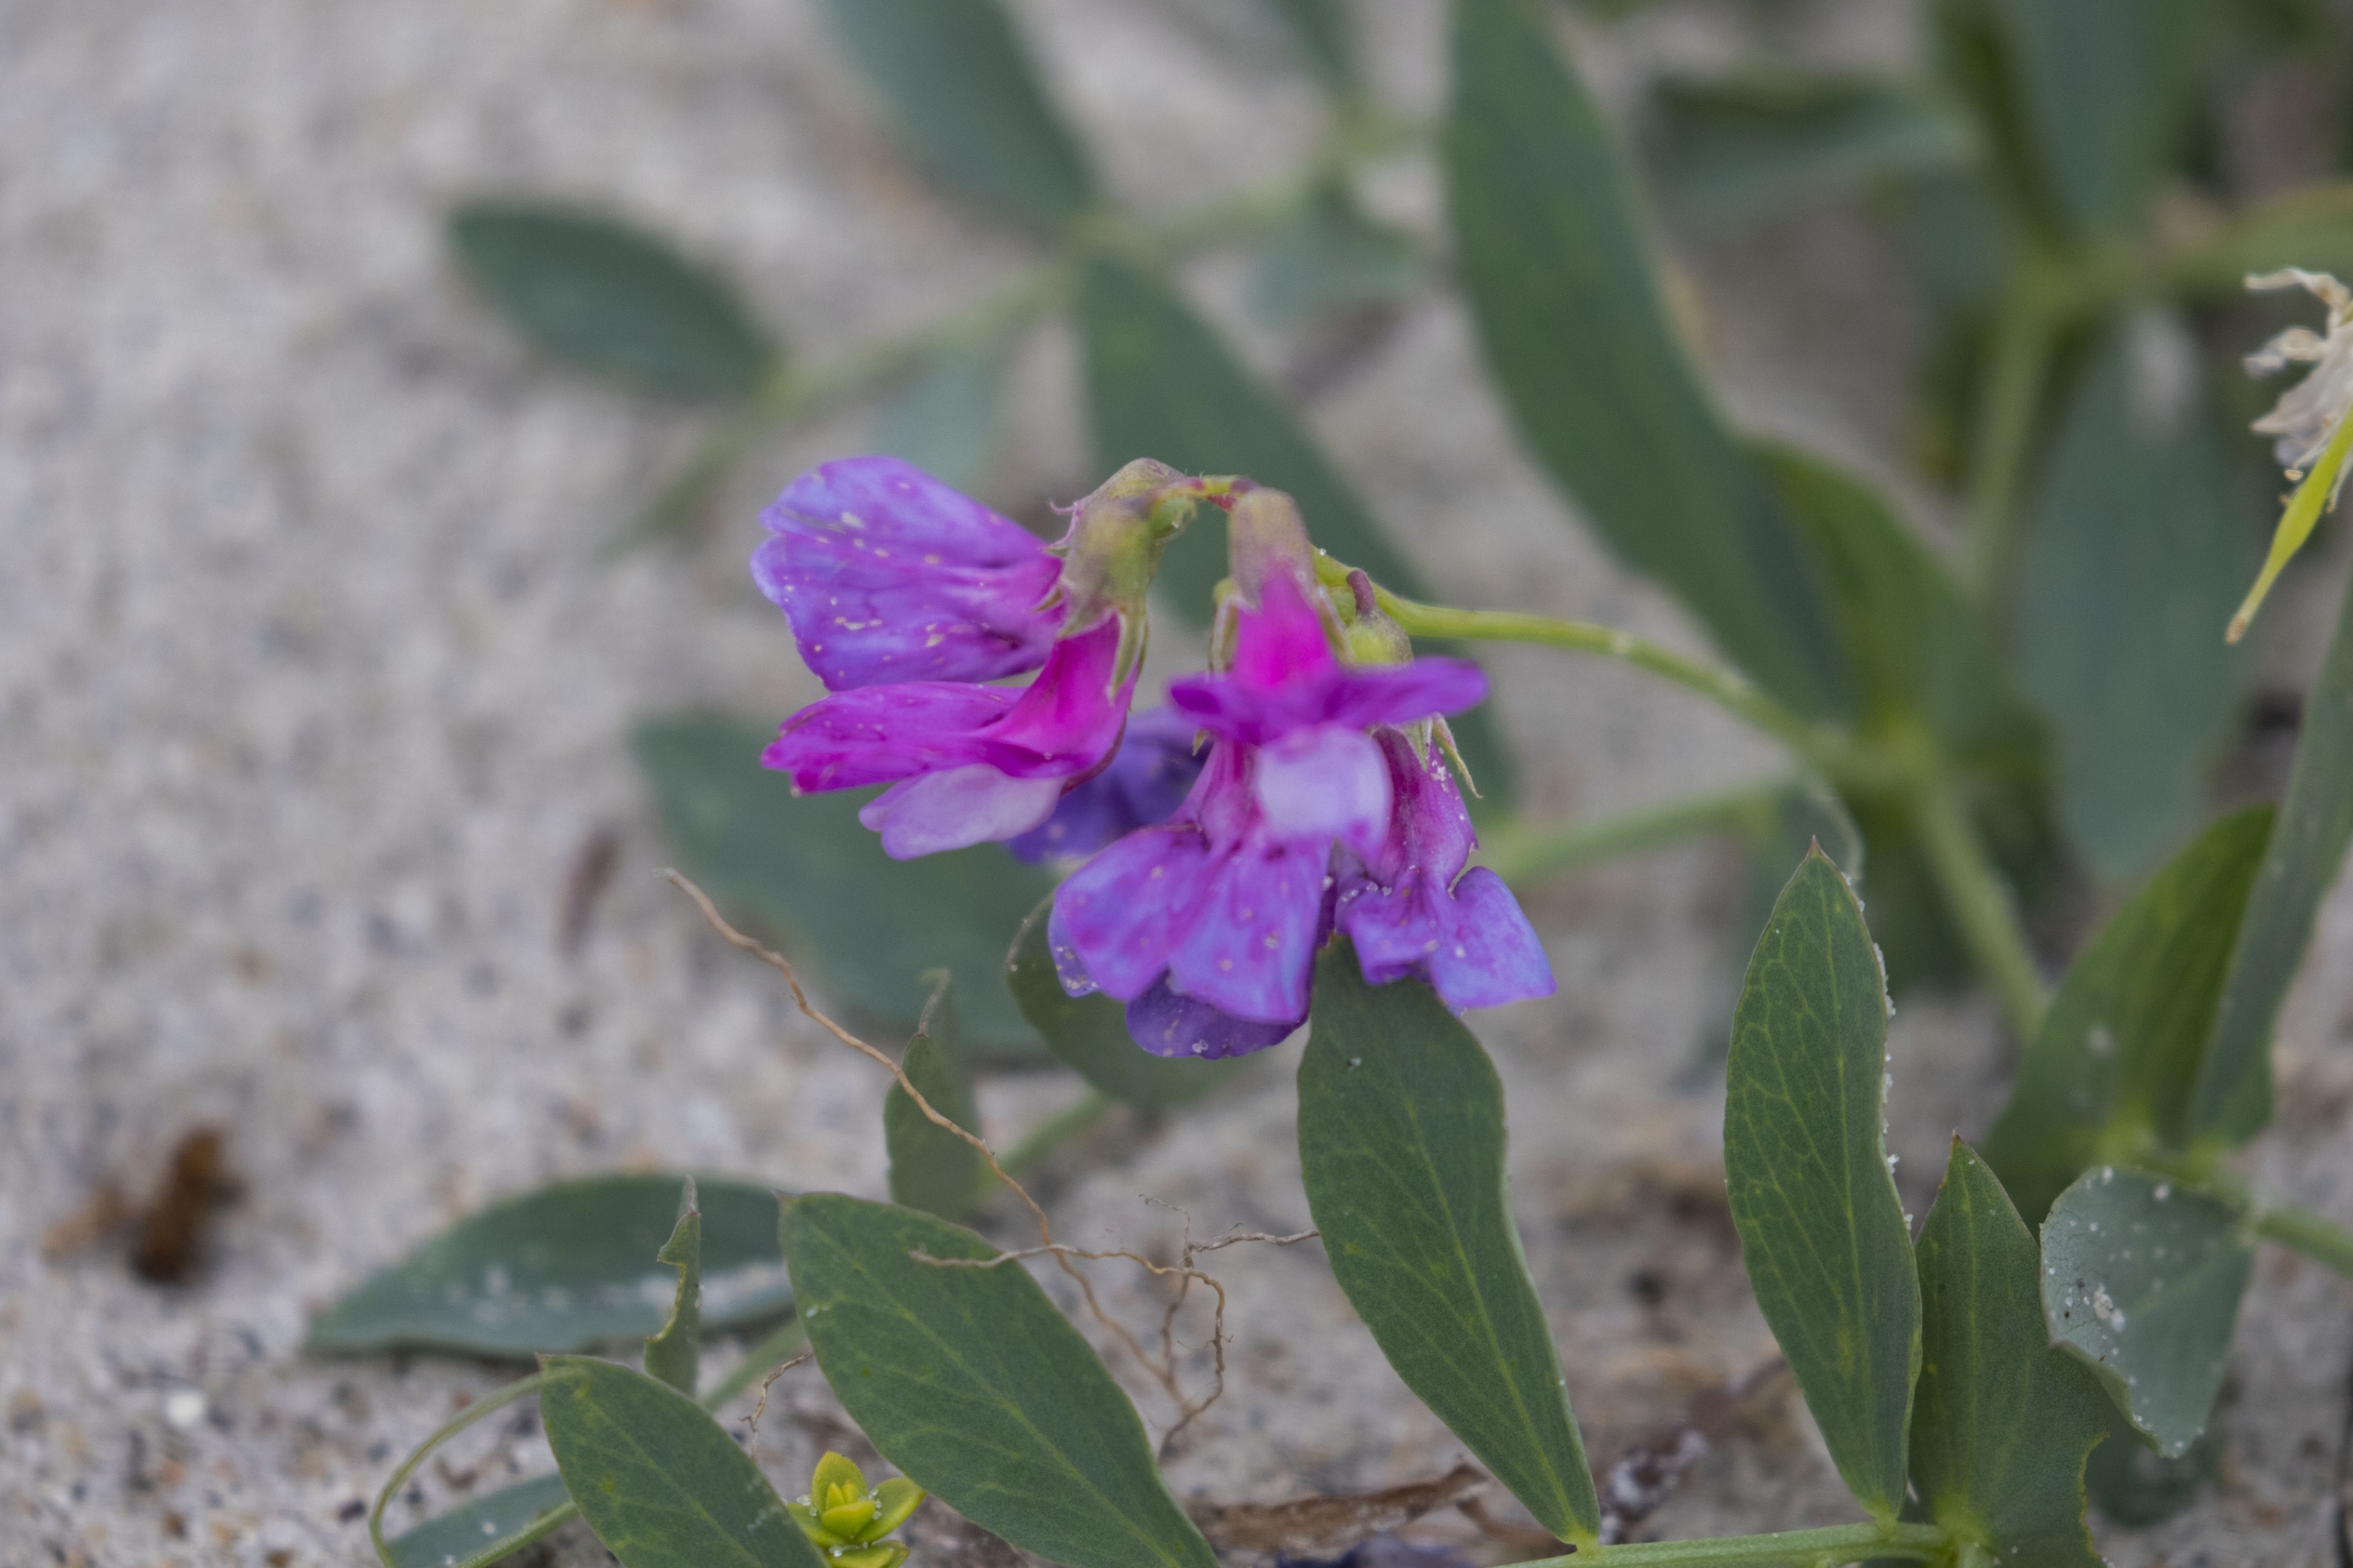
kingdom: Plantae
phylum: Tracheophyta
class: Magnoliopsida
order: Fabales
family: Fabaceae
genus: Lathyrus
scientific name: Lathyrus japonicus
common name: Strand-fladbælg
